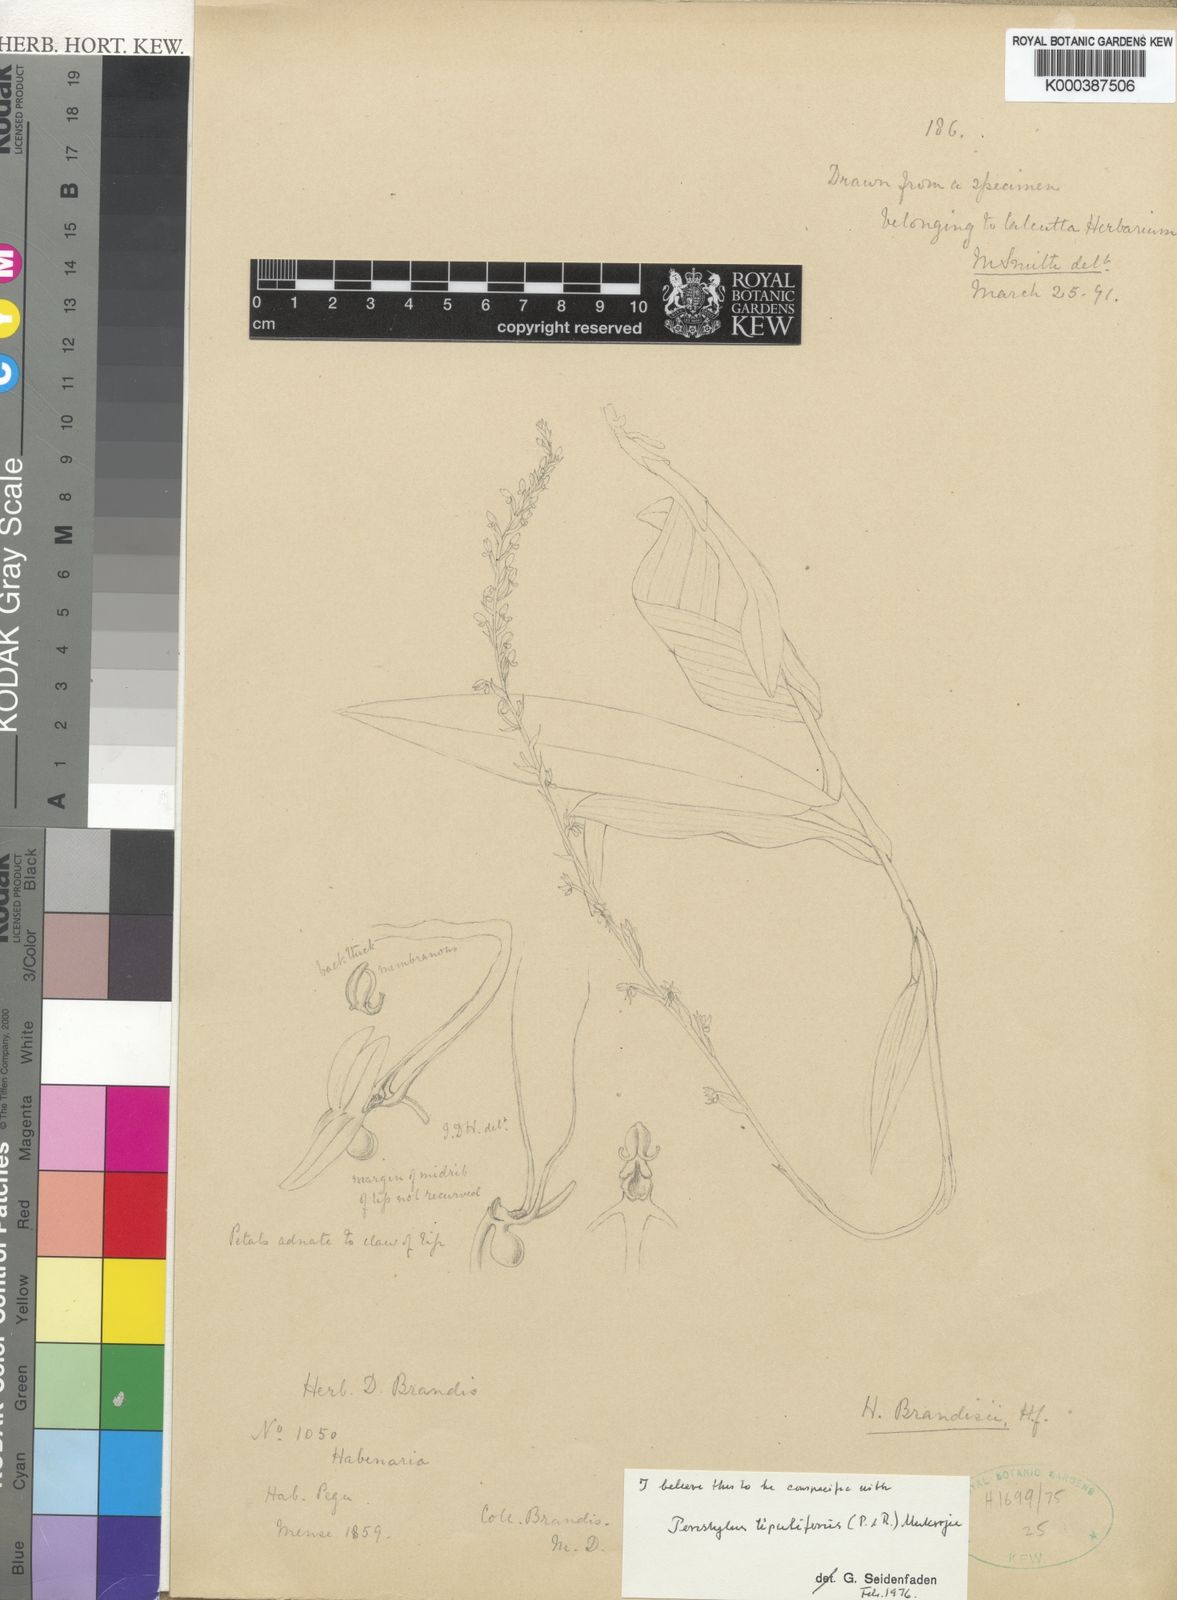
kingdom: Plantae
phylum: Tracheophyta
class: Liliopsida
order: Asparagales
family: Orchidaceae
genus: Peristylus
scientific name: Peristylus
